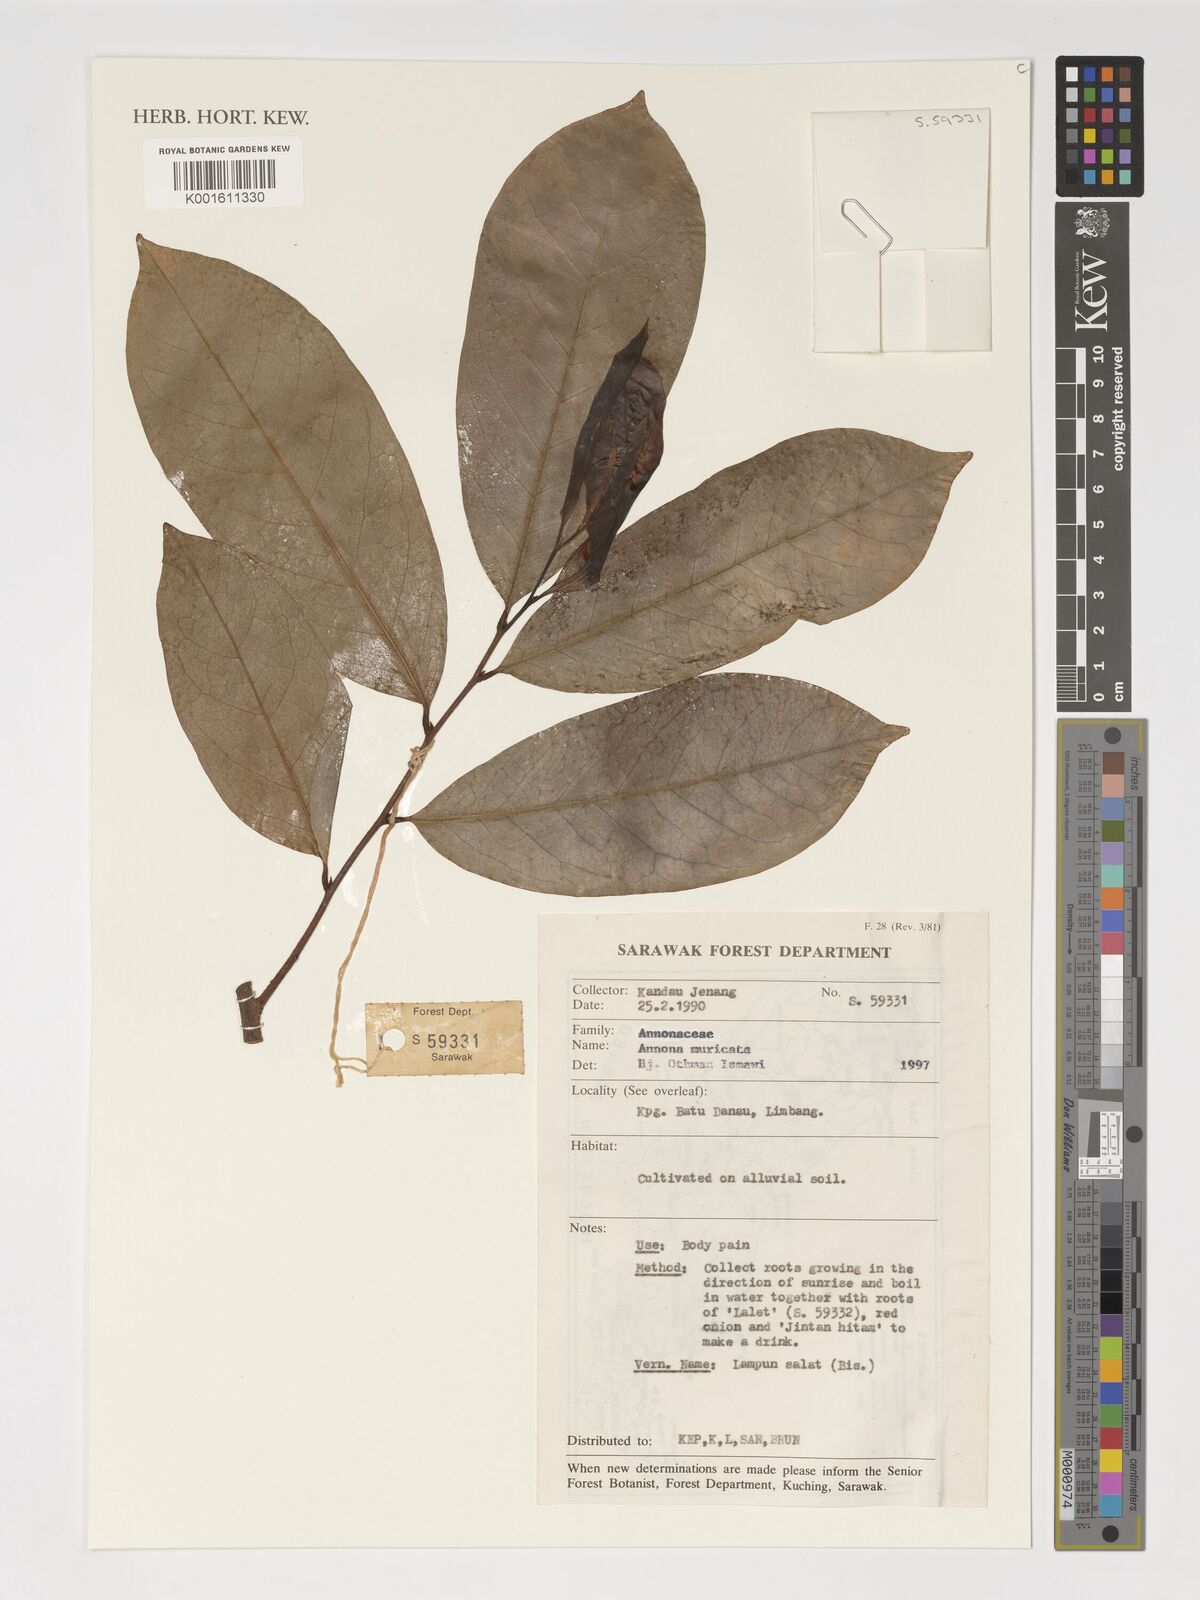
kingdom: Plantae
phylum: Tracheophyta
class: Magnoliopsida
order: Magnoliales
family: Annonaceae
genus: Annona
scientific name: Annona muricata
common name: Soursop
